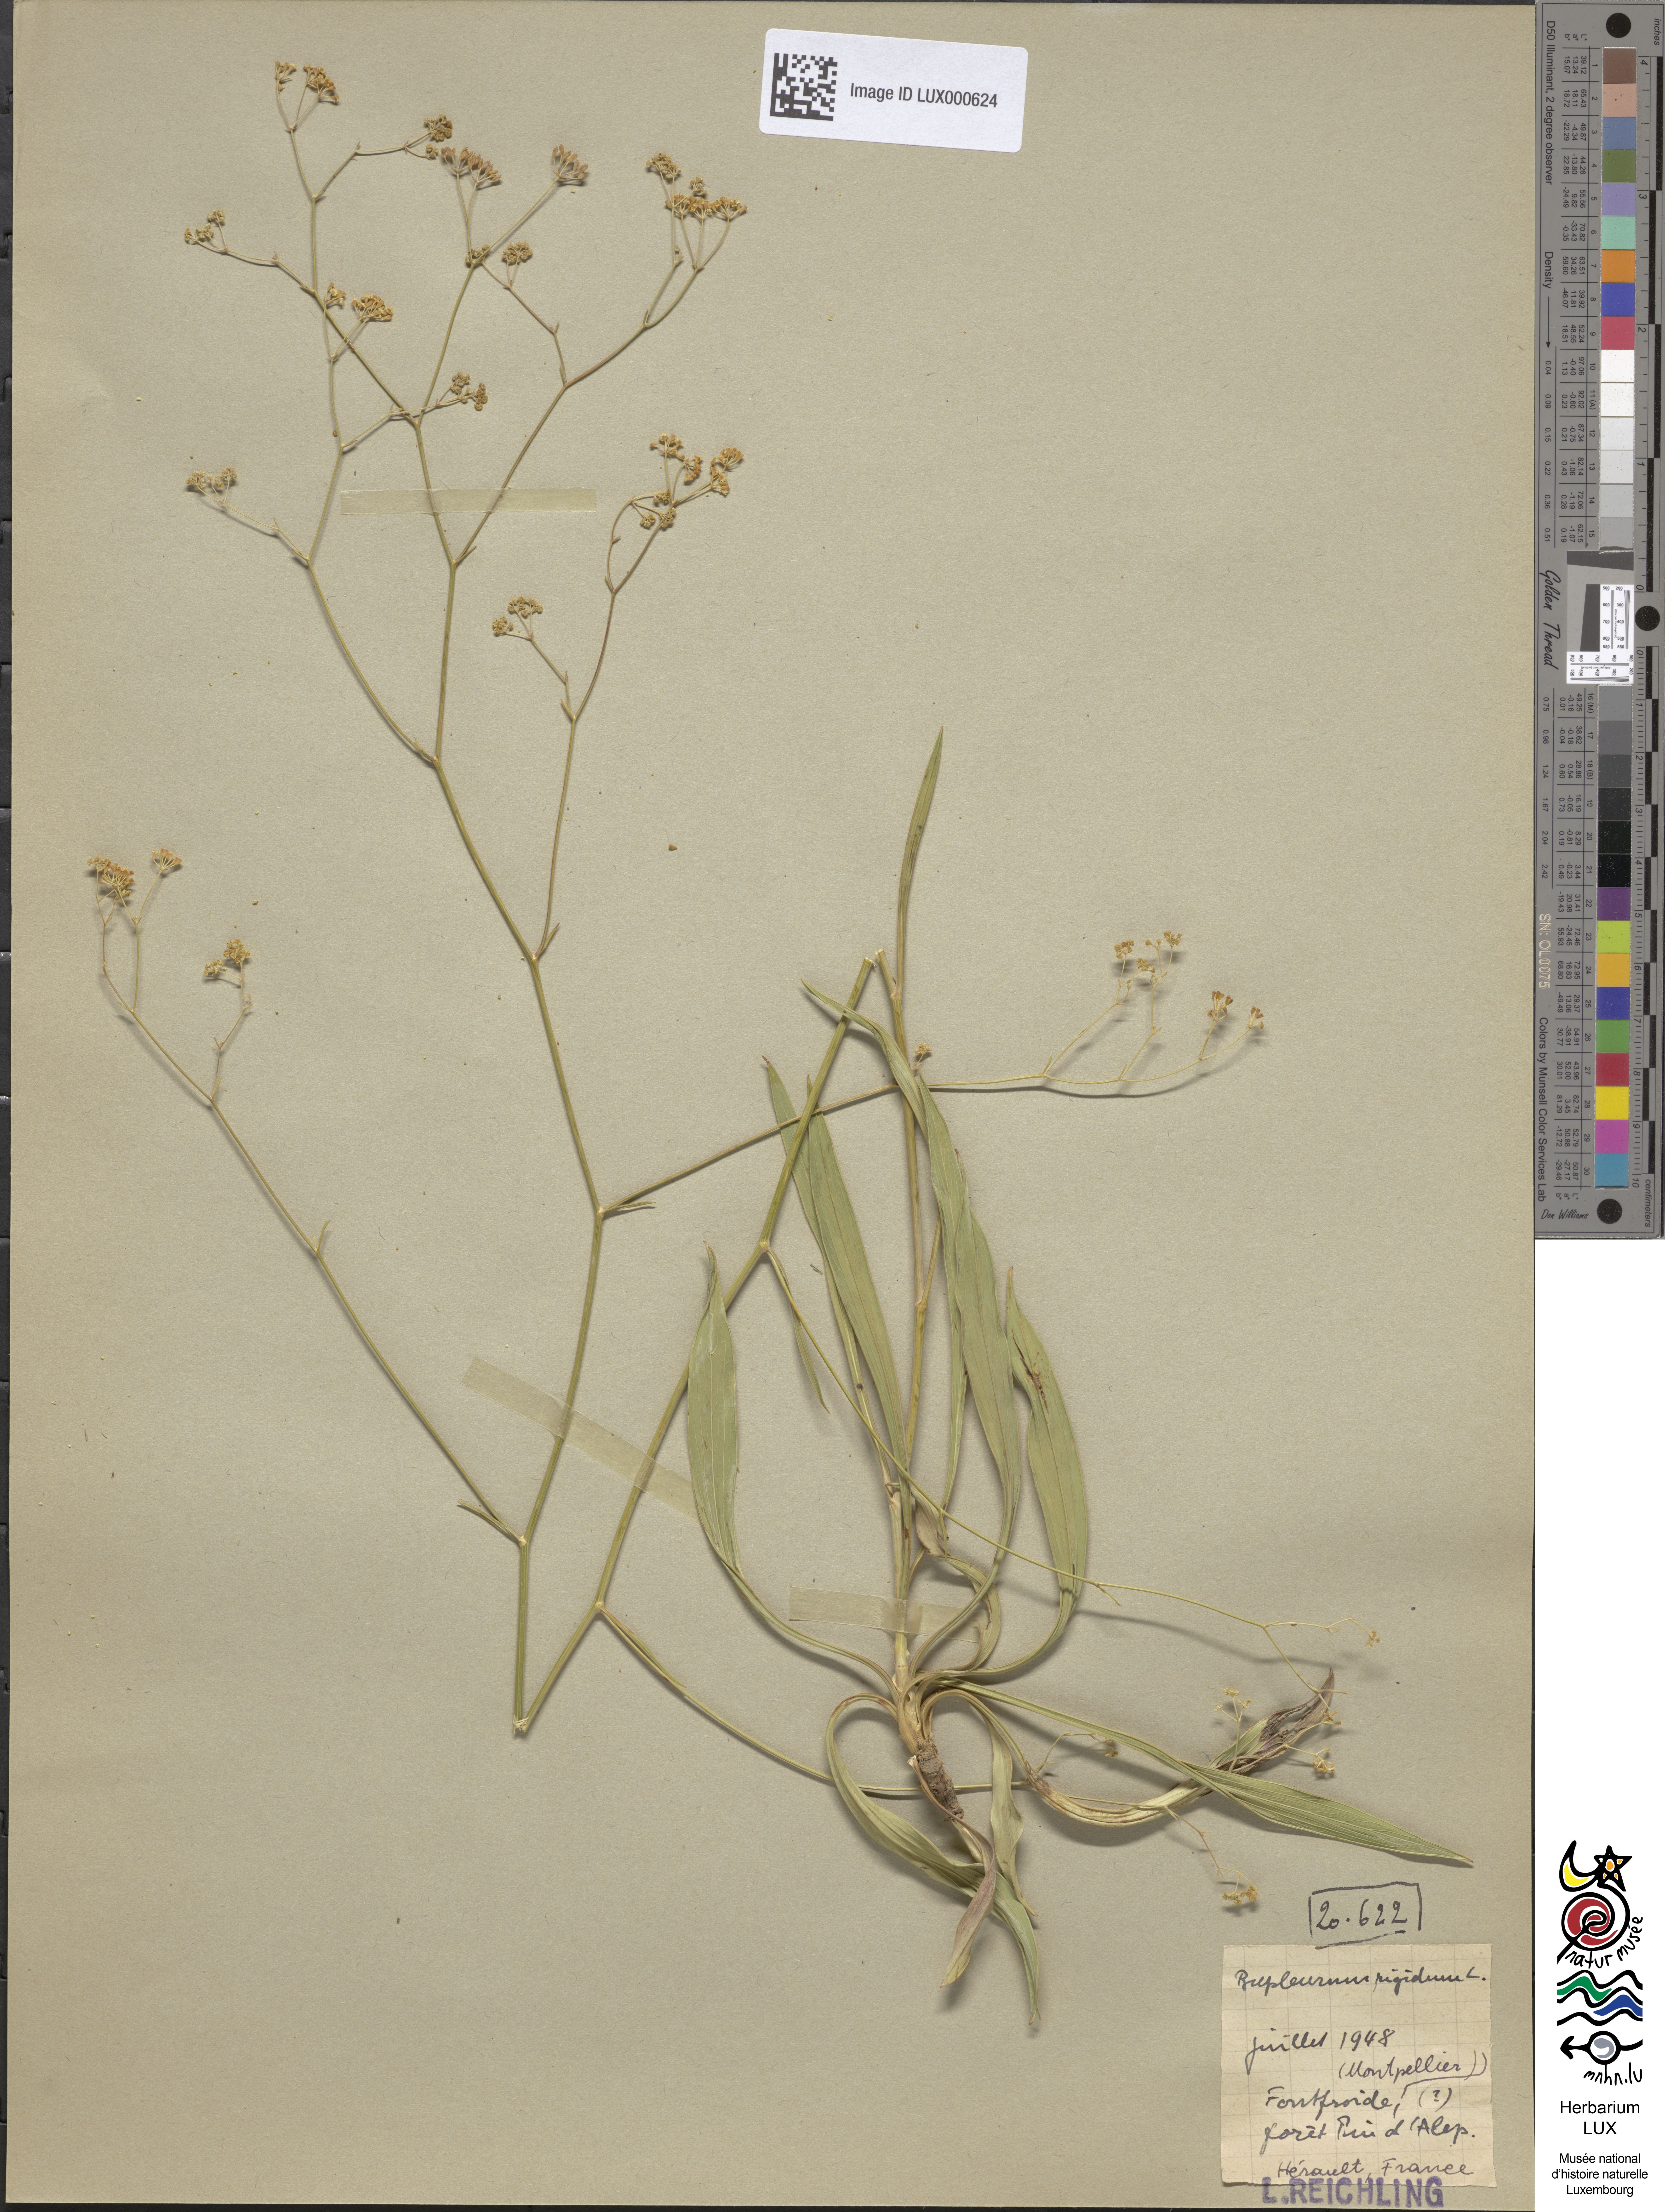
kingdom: Plantae
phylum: Tracheophyta
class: Magnoliopsida
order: Apiales
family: Apiaceae
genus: Bupleurum
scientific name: Bupleurum rigidum
